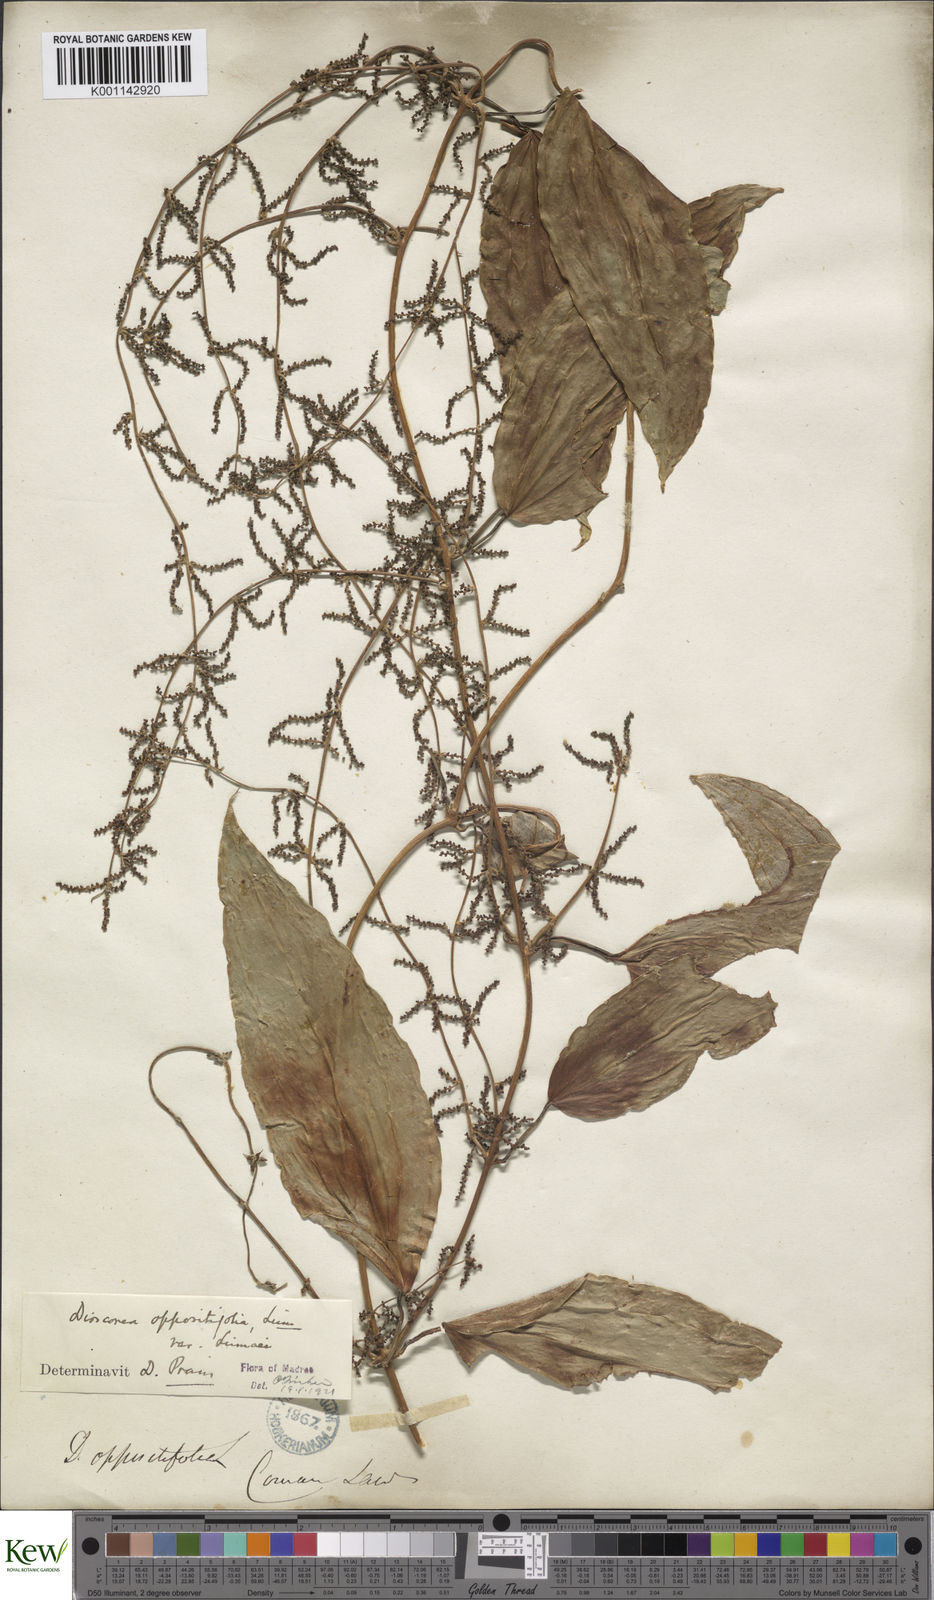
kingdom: Plantae
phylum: Tracheophyta
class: Liliopsida
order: Dioscoreales
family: Dioscoreaceae
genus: Dioscorea
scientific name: Dioscorea oppositifolia
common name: Chinese yam
